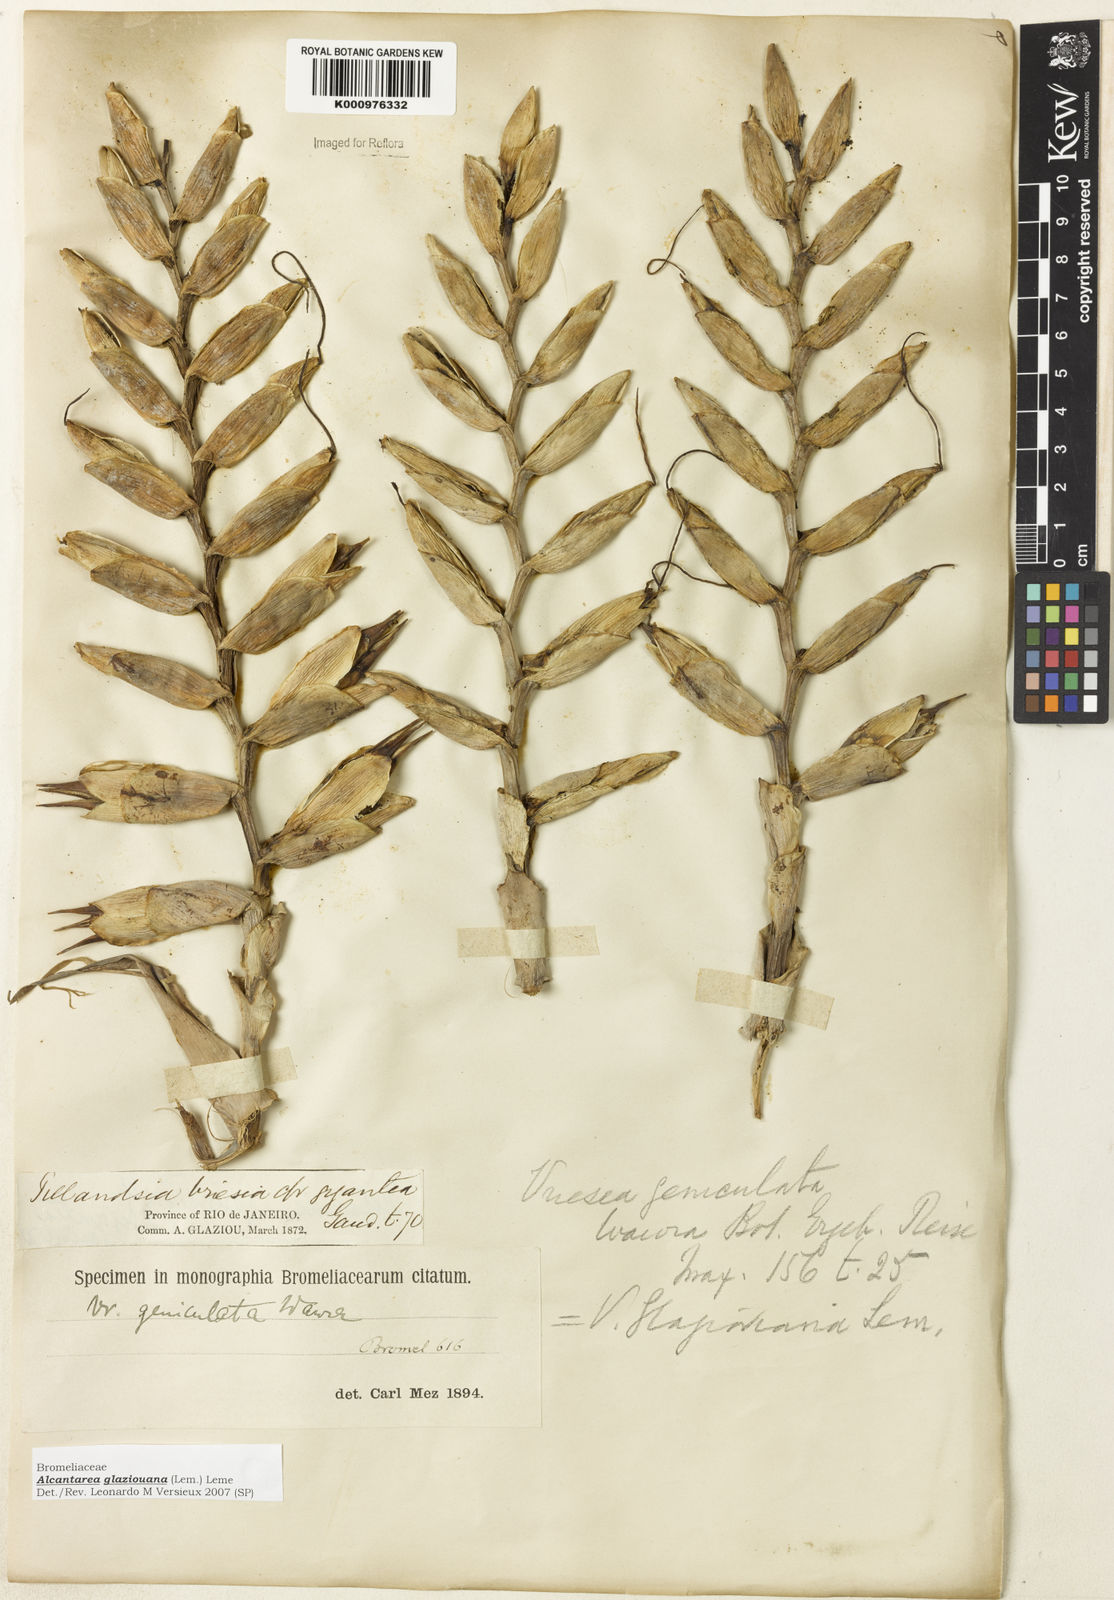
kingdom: Plantae
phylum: Tracheophyta
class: Liliopsida
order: Poales
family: Bromeliaceae
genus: Alcantarea
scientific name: Alcantarea geniculata
